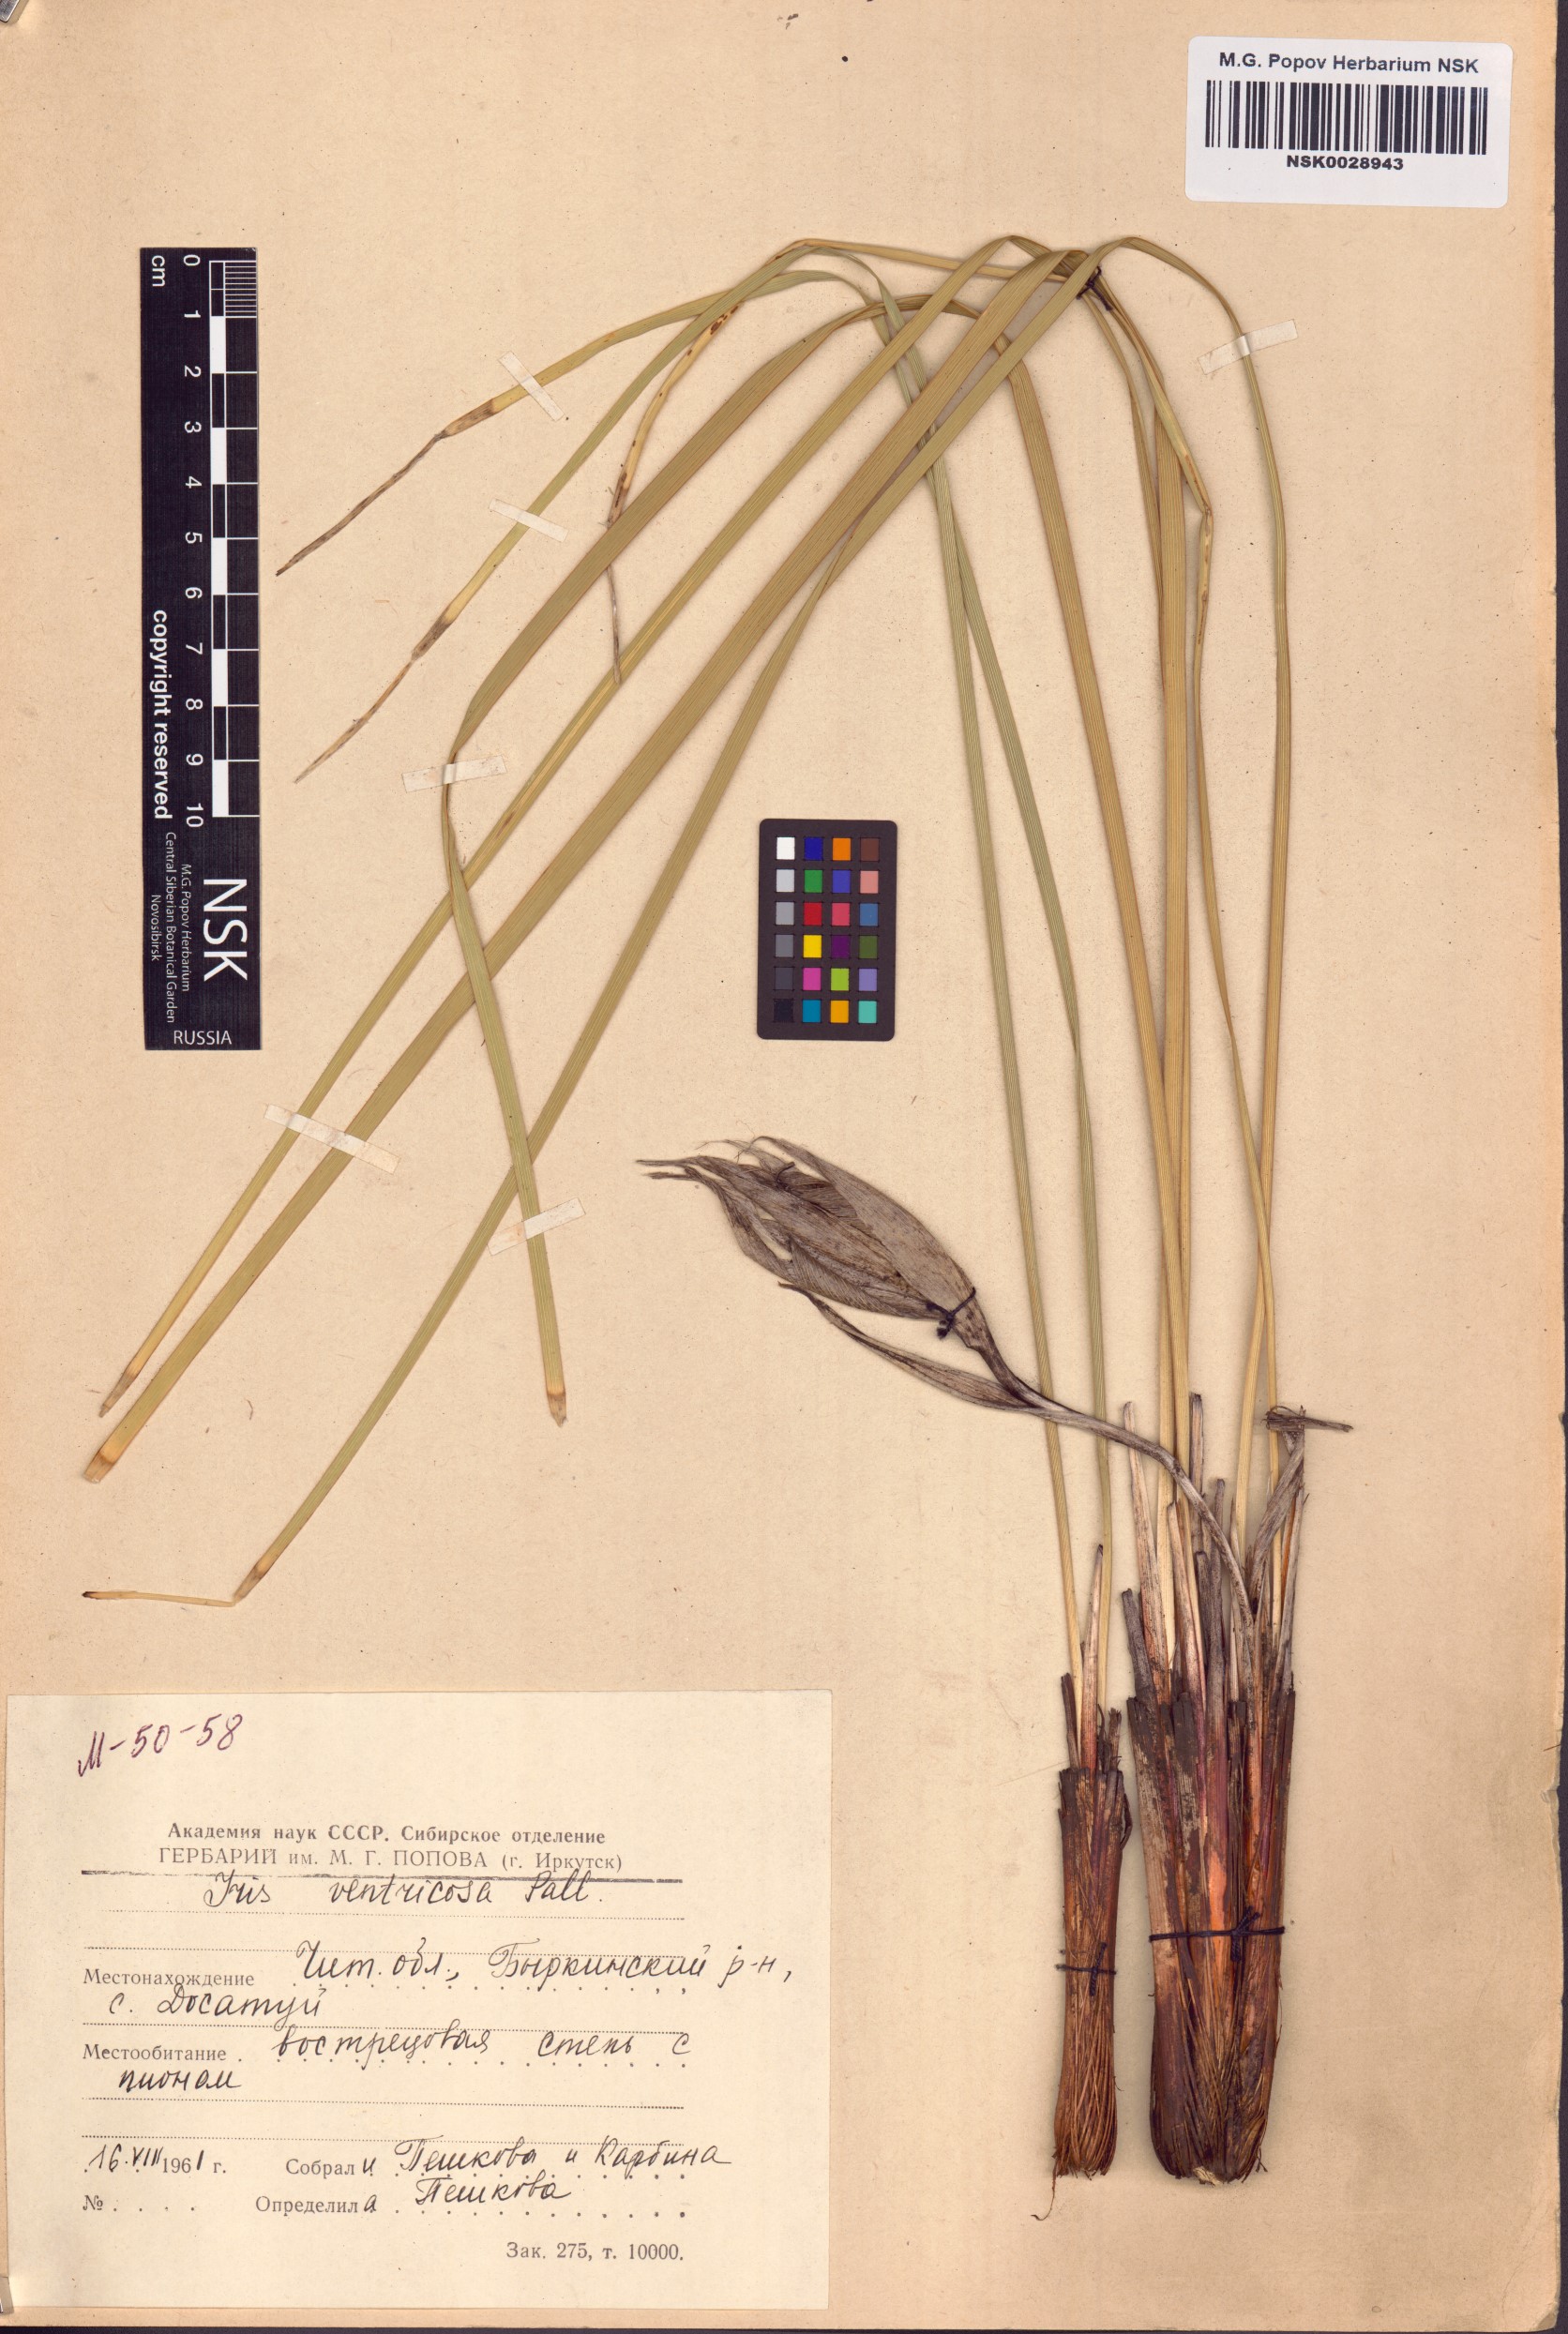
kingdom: Plantae
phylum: Tracheophyta
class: Liliopsida
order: Asparagales
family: Iridaceae
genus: Iris
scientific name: Iris ventricosa
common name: Purple-flower iris
